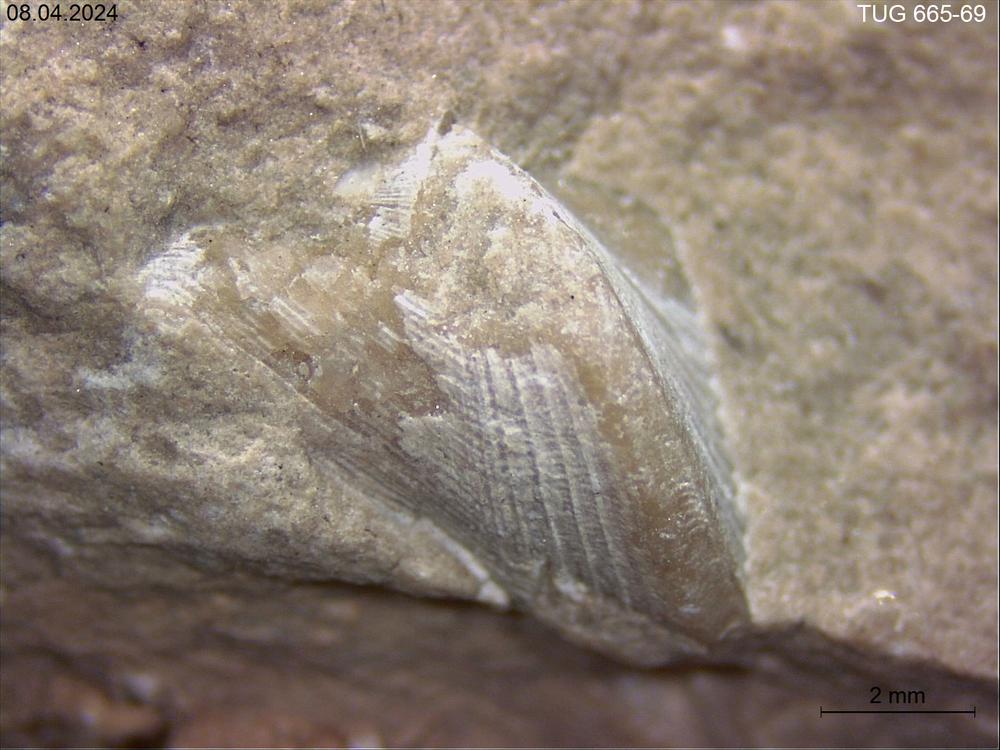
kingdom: Animalia
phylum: Mollusca
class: Rostroconchia
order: Conocardiida
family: Hippocardiidae
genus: Hippocardia
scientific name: Hippocardia
